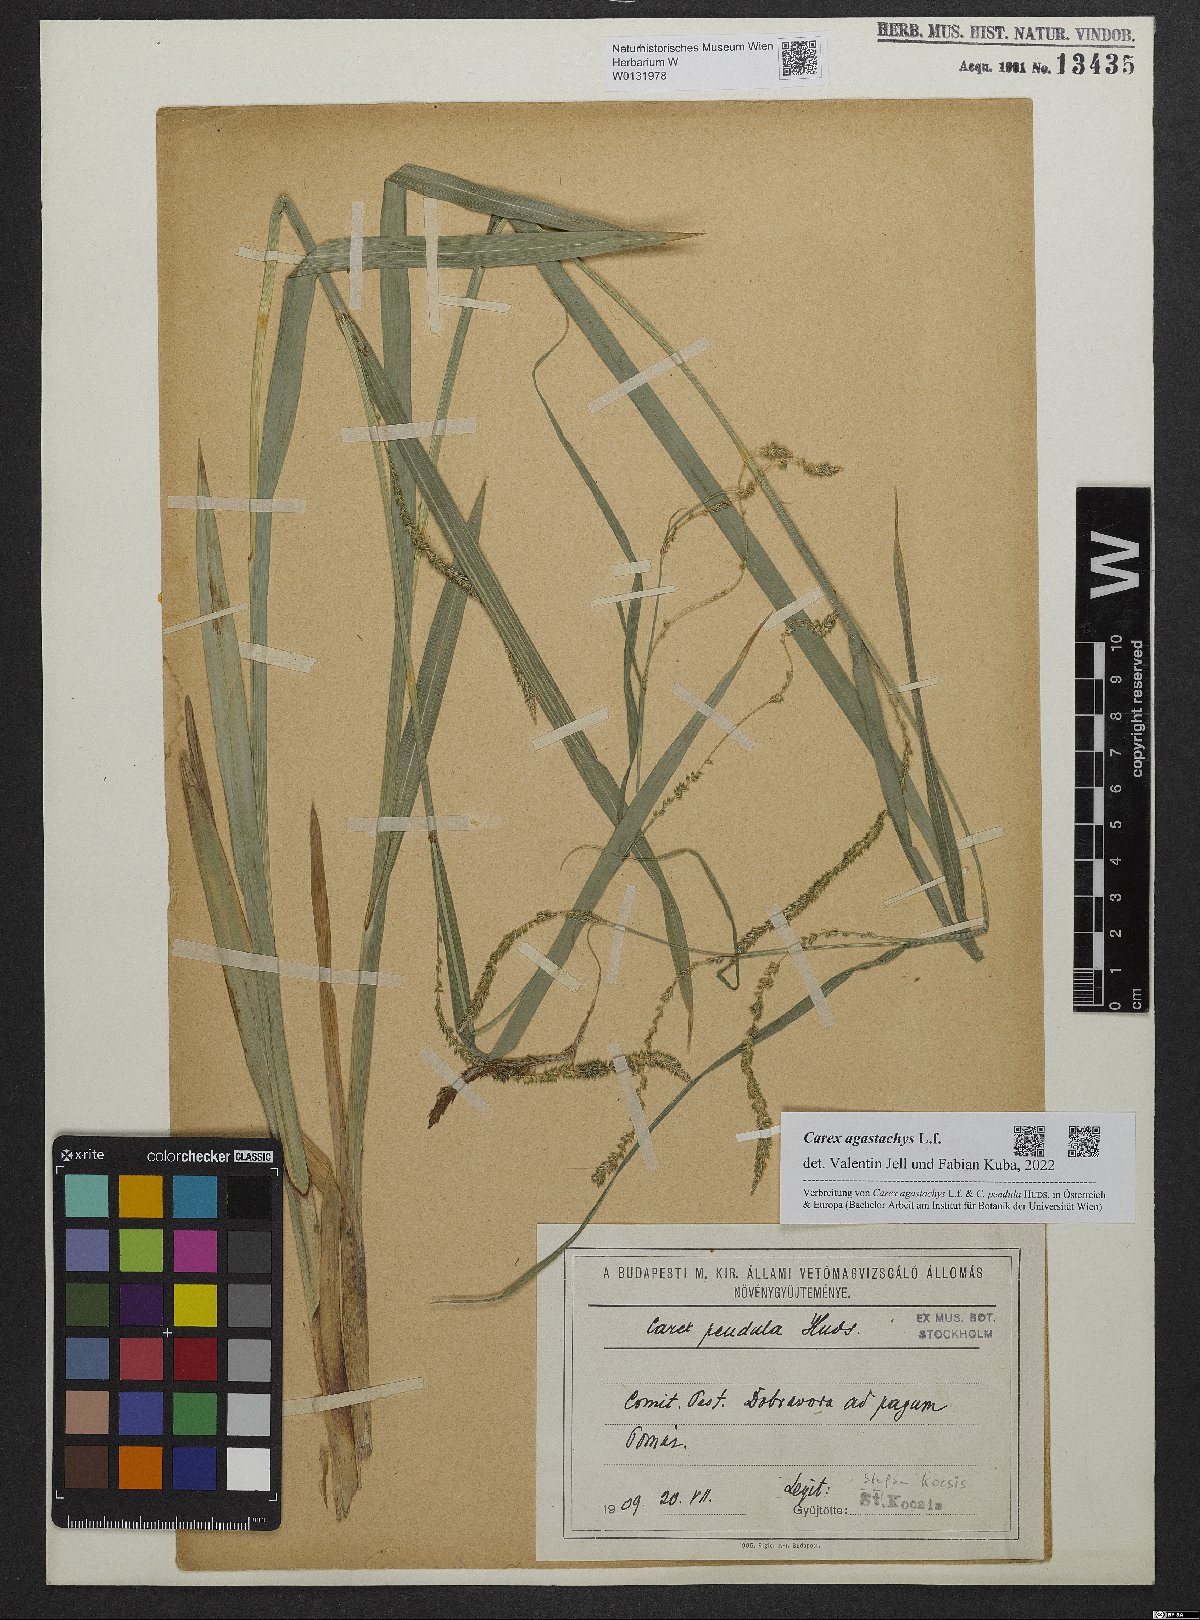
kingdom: Plantae
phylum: Tracheophyta
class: Liliopsida
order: Poales
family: Cyperaceae
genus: Carex
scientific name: Carex agastachys
